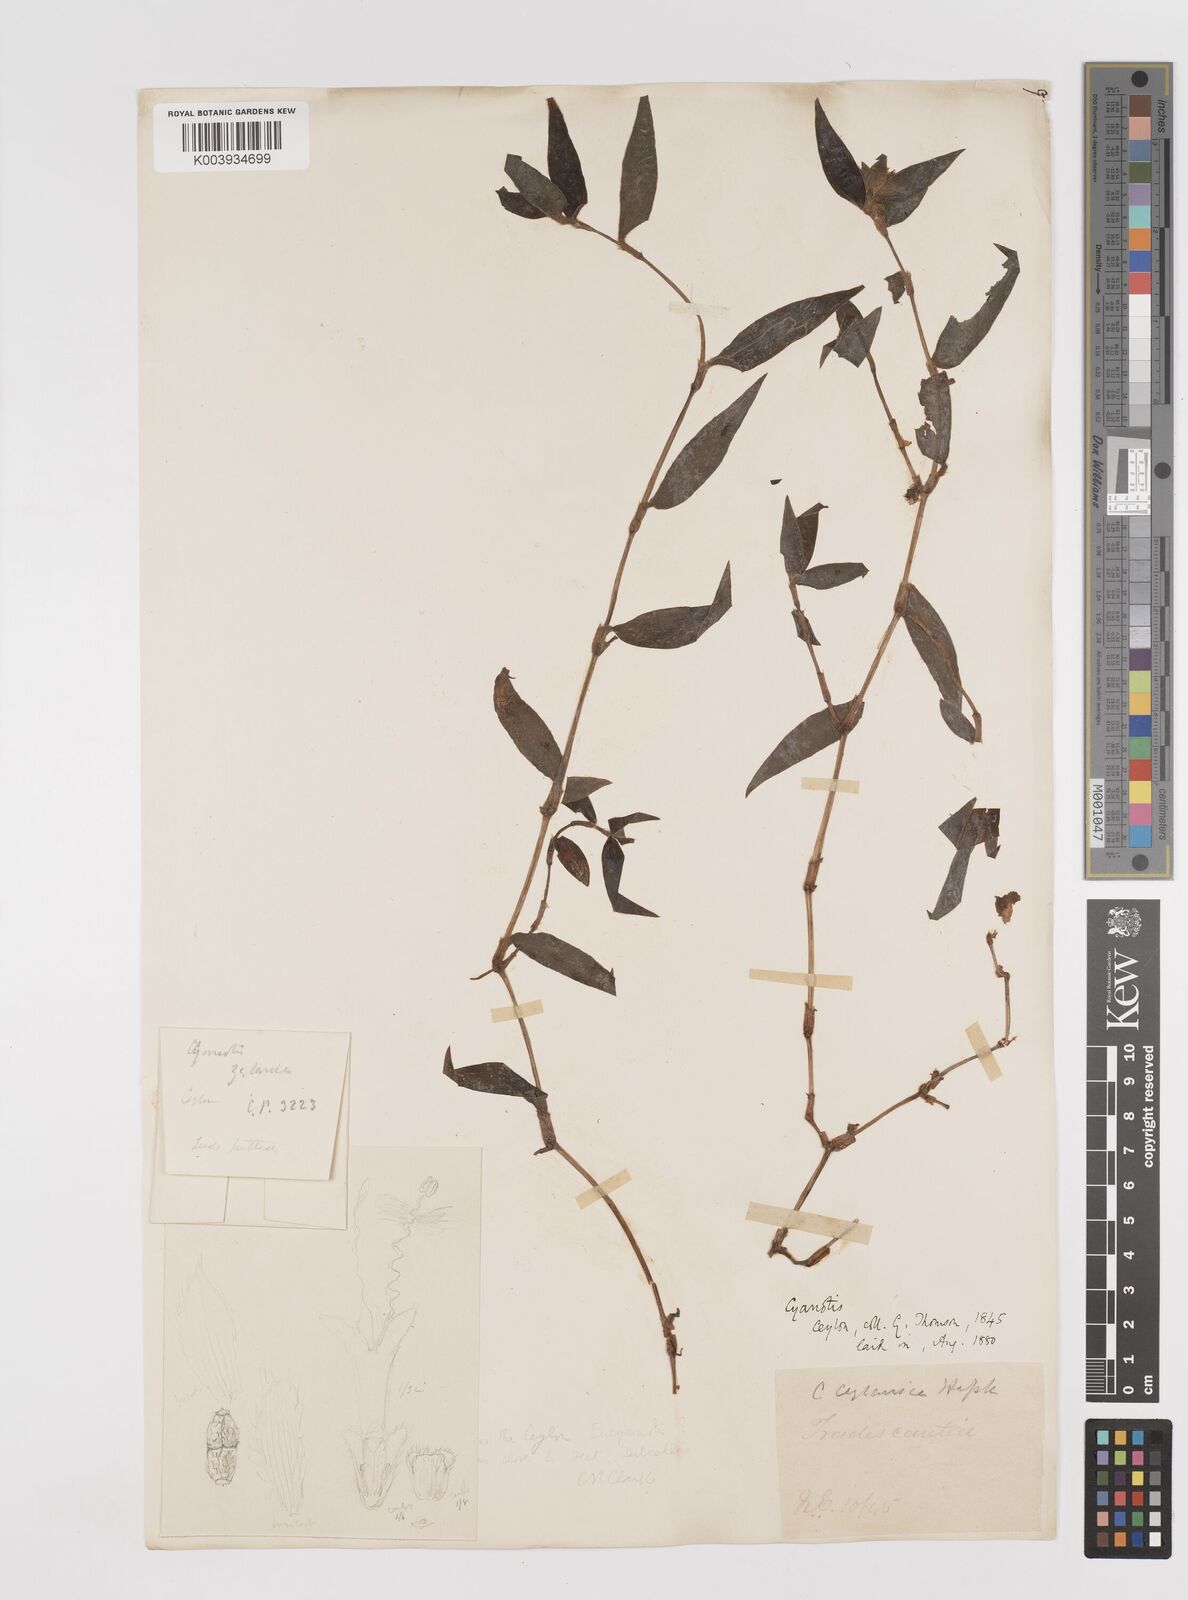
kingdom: Plantae
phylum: Tracheophyta
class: Liliopsida
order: Commelinales
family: Commelinaceae
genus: Cyanotis
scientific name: Cyanotis ceylanica
